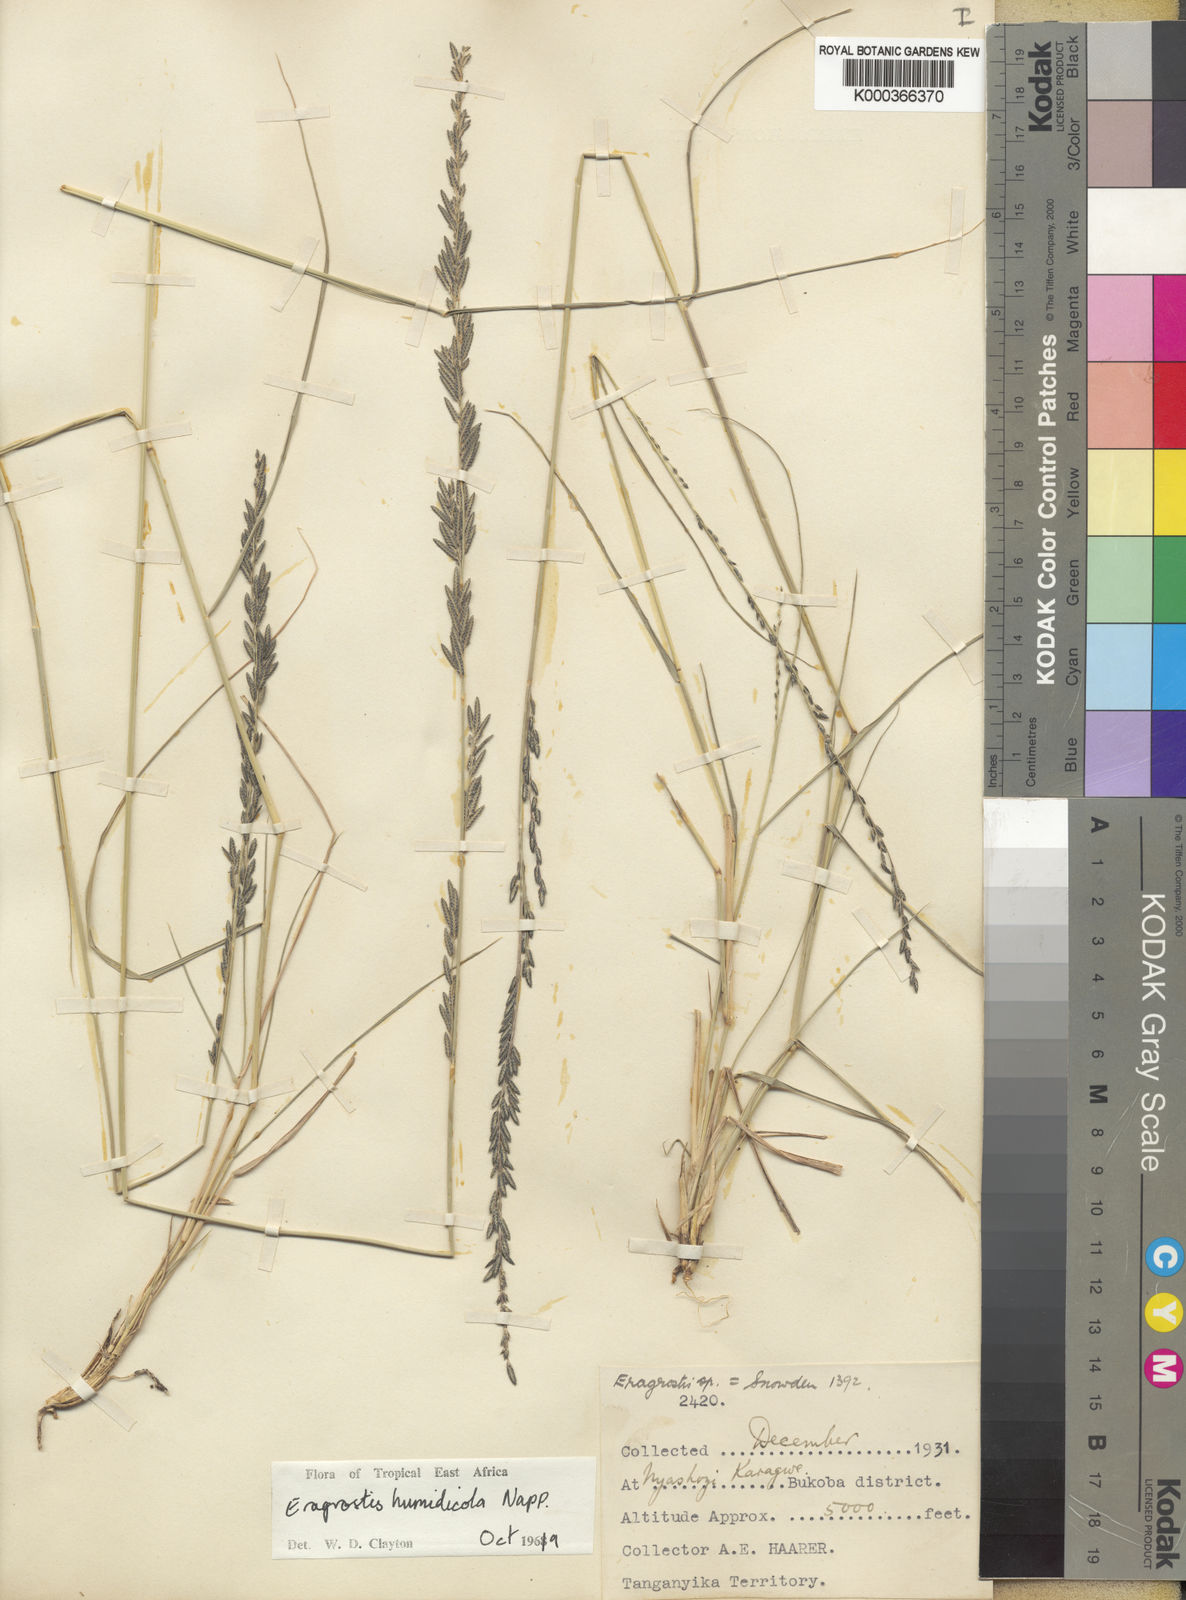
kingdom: Plantae
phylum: Tracheophyta
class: Liliopsida
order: Poales
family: Poaceae
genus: Eragrostis
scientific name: Eragrostis humidicola
